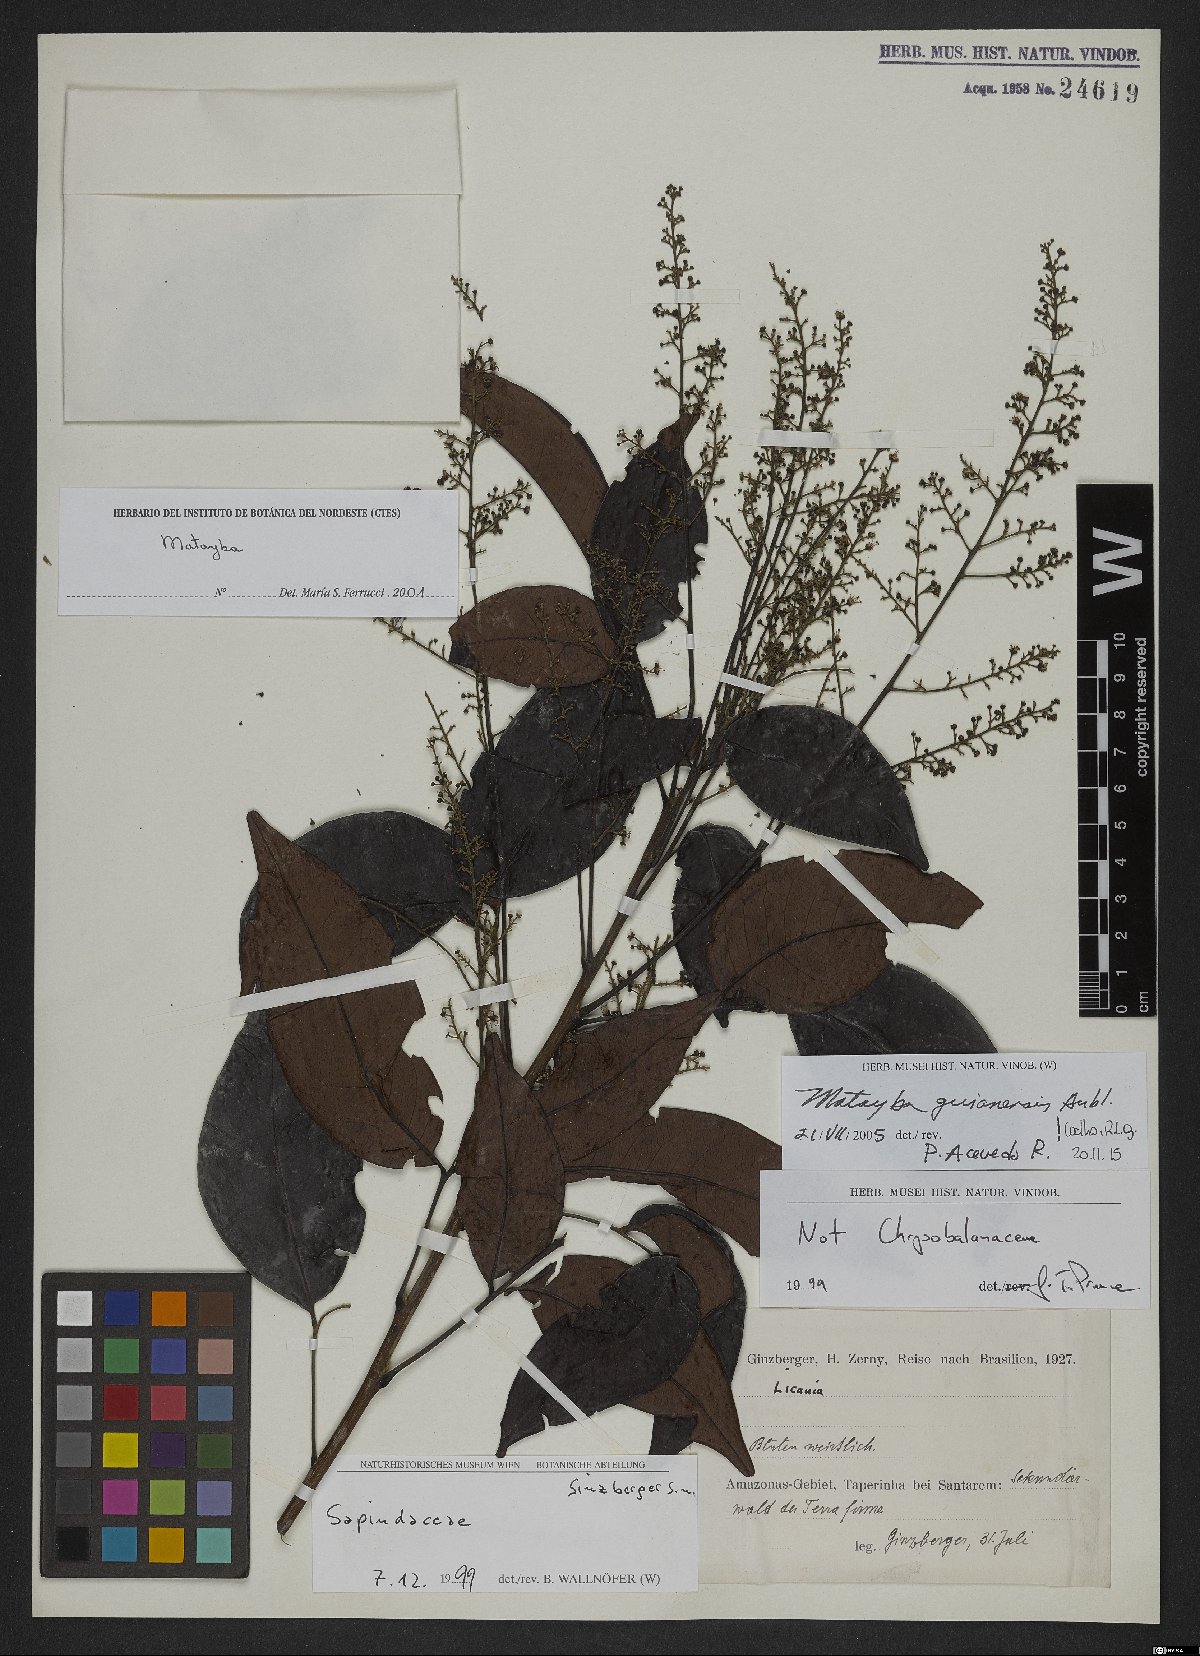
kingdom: Plantae
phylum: Tracheophyta
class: Magnoliopsida
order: Sapindales
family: Sapindaceae
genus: Matayba
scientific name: Matayba guianensis
